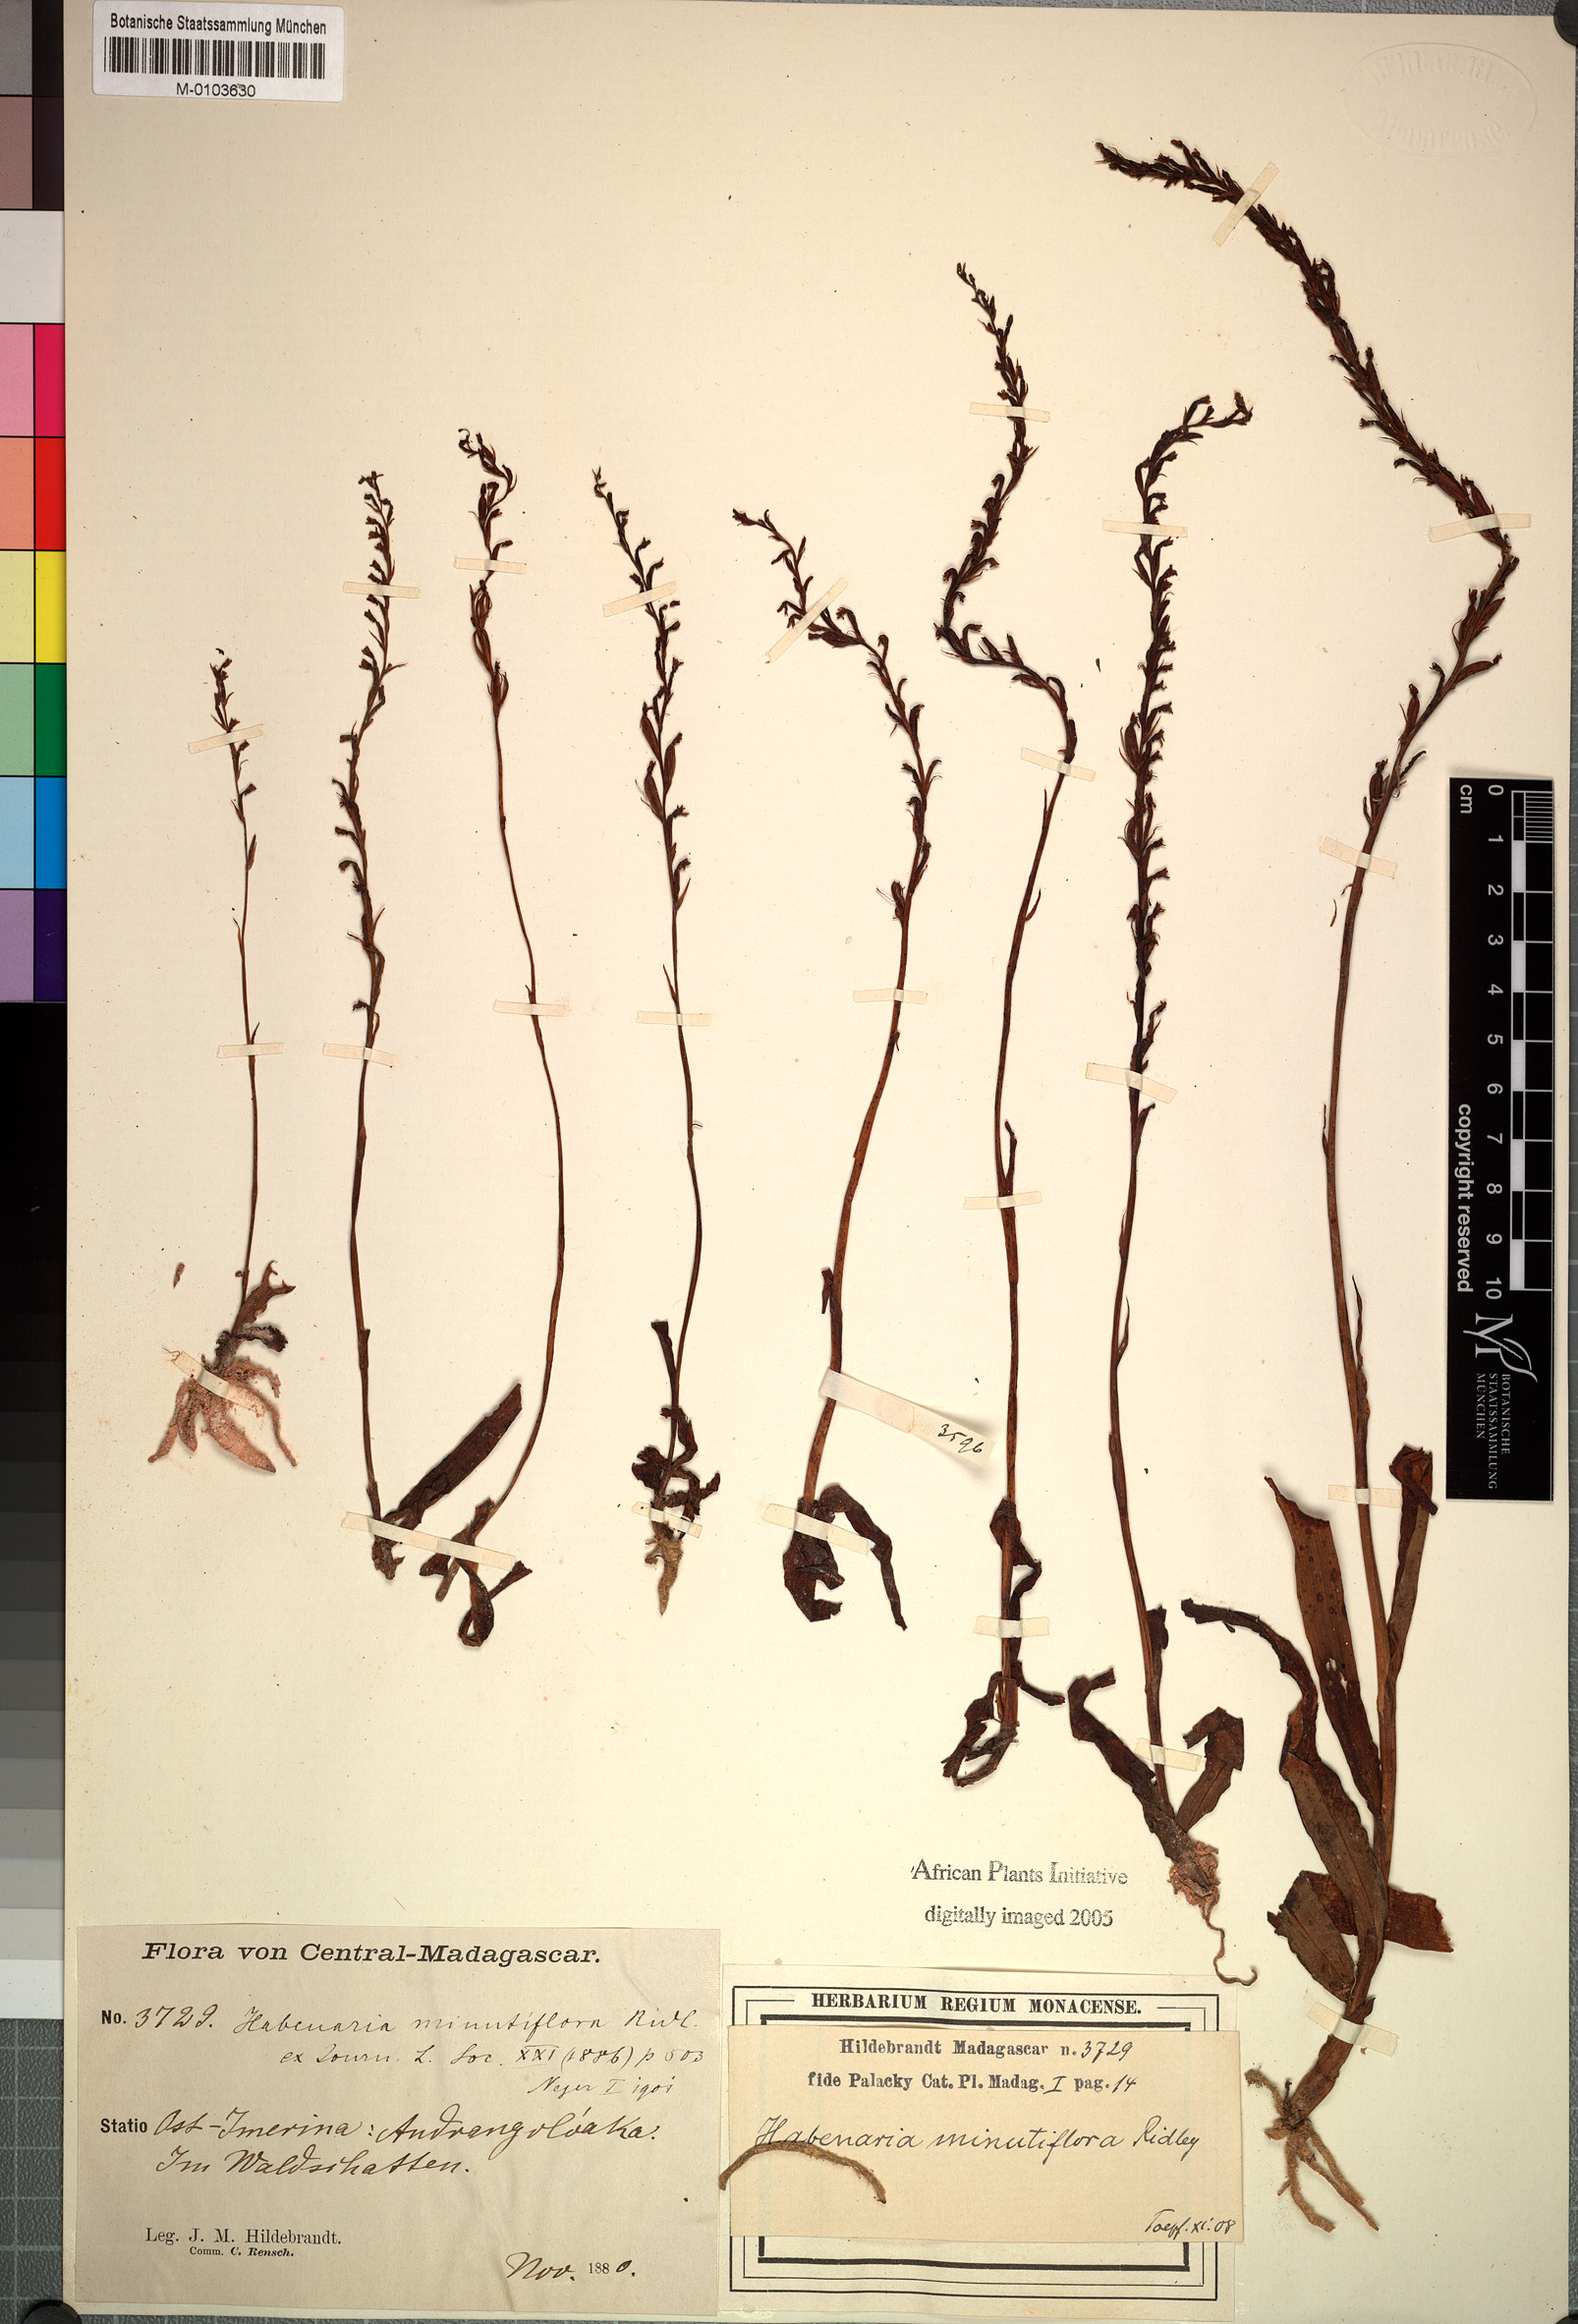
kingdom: Plantae
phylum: Tracheophyta
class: Liliopsida
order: Asparagales
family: Orchidaceae
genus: Benthamia
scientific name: Benthamia africana
